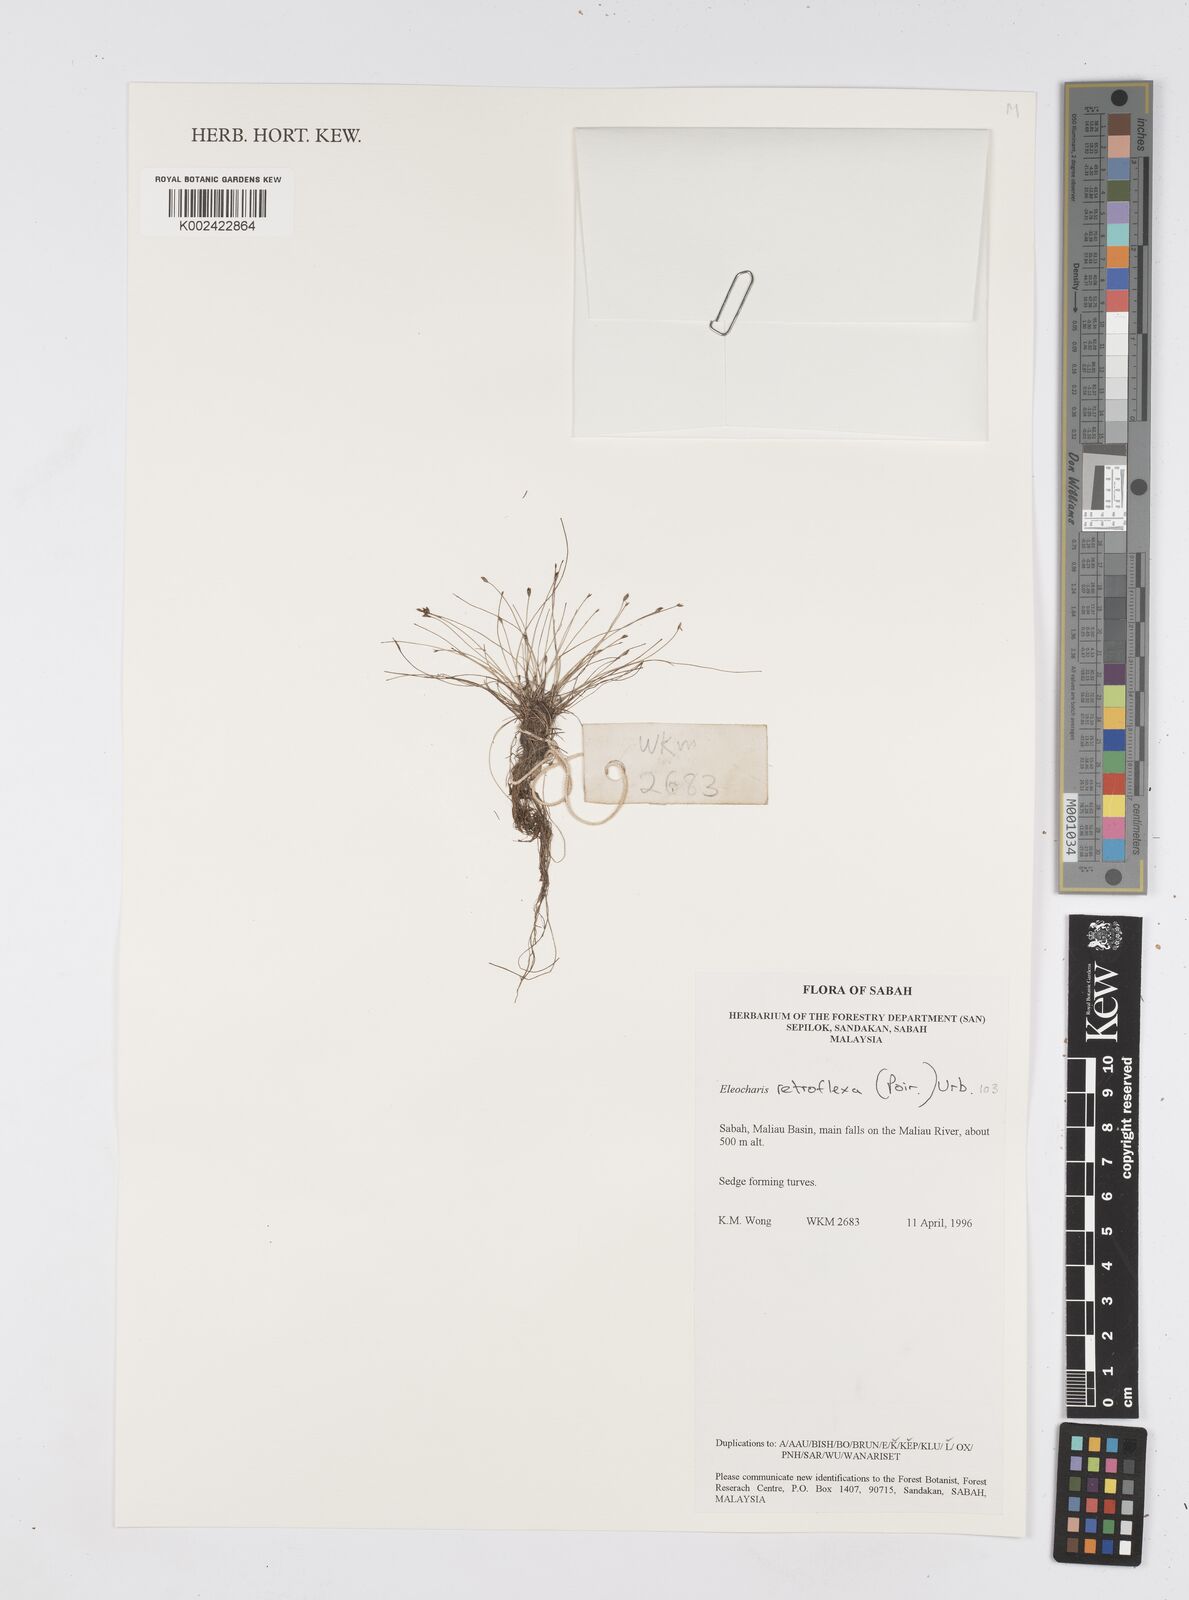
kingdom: Plantae
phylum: Tracheophyta
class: Liliopsida
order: Poales
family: Cyperaceae
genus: Eleocharis
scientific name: Eleocharis retroflexa
